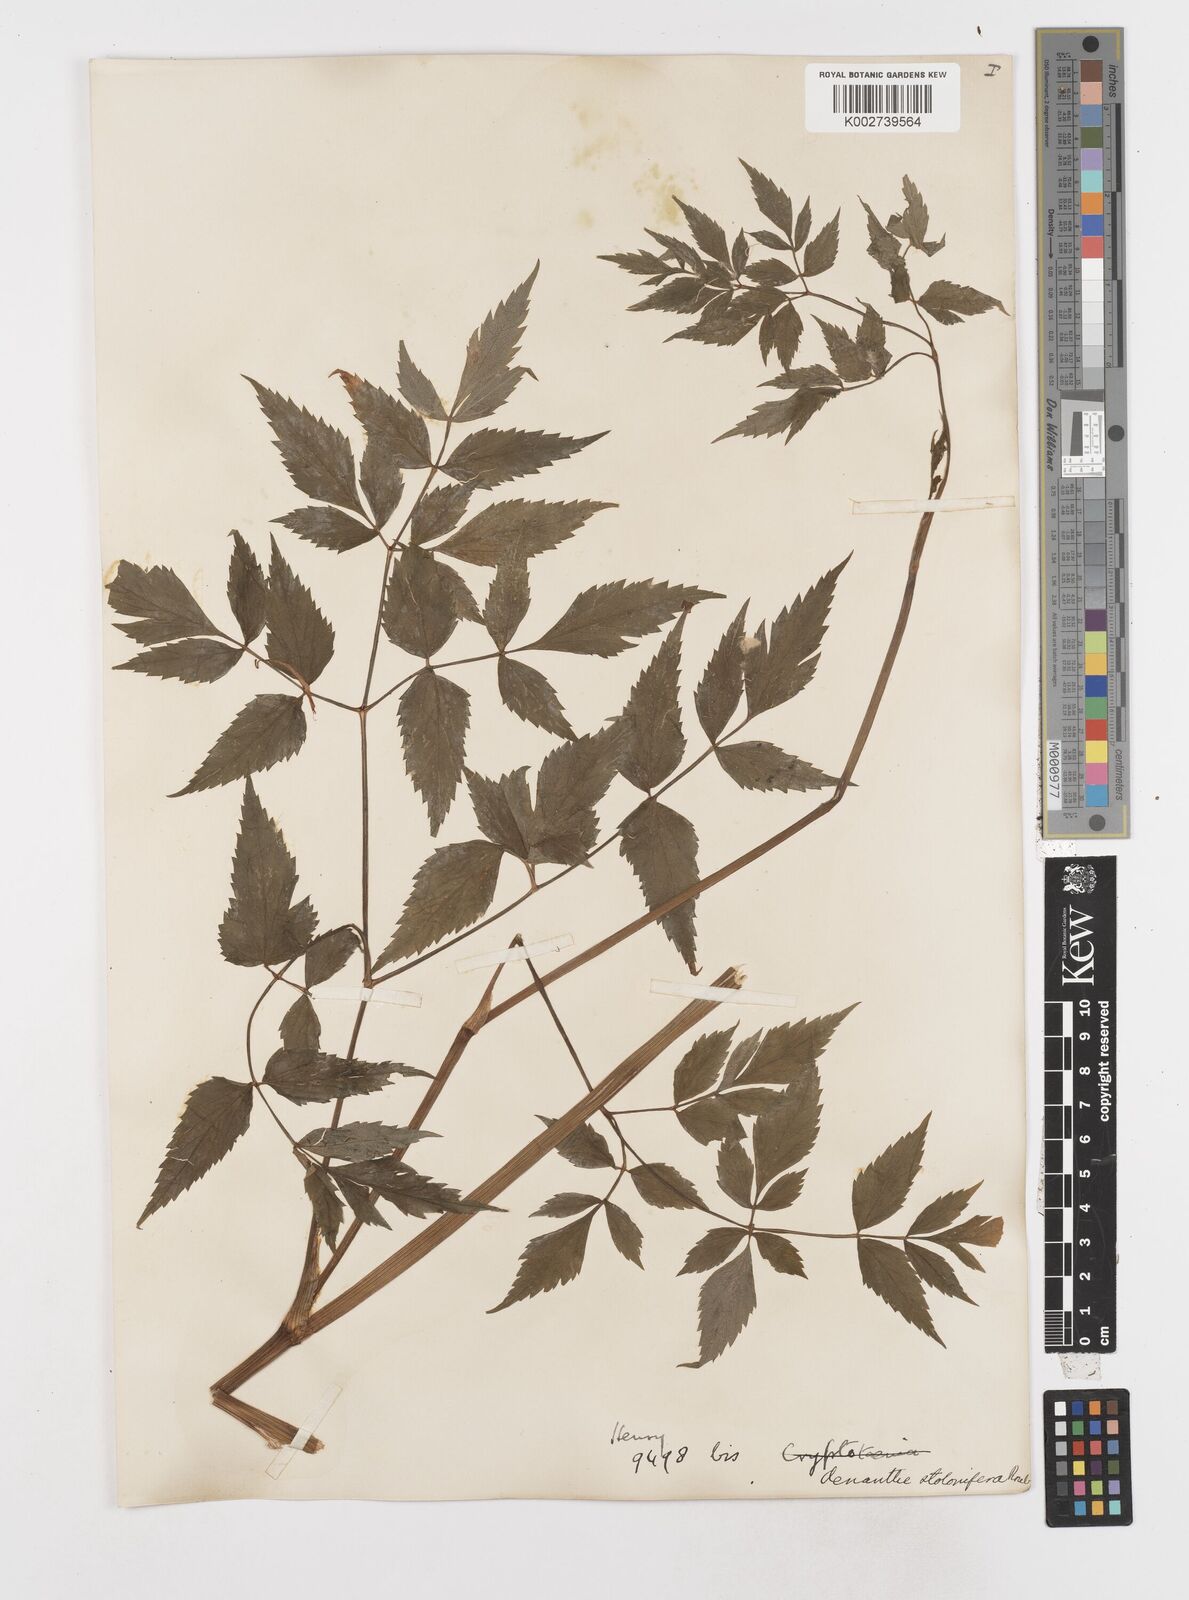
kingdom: Plantae
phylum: Tracheophyta
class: Magnoliopsida
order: Apiales
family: Apiaceae
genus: Oenanthe
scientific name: Oenanthe javanica
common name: Java water-dropwort
